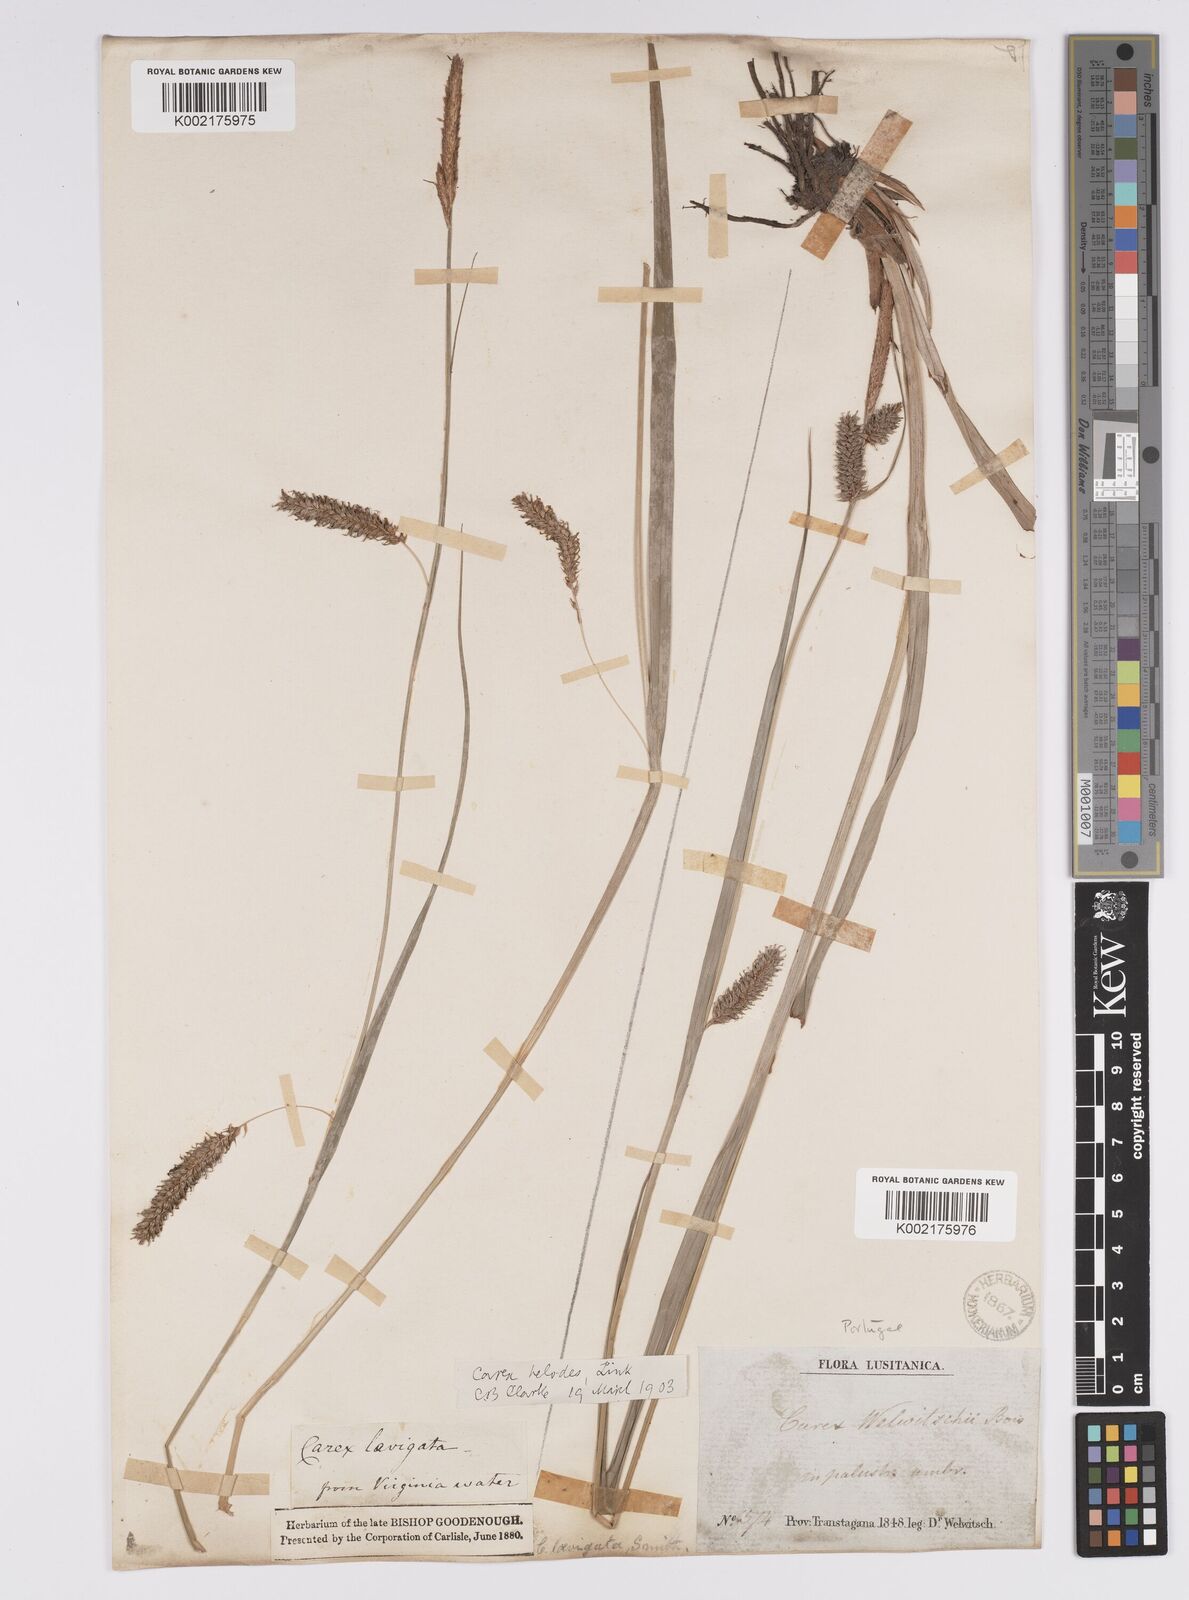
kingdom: Plantae
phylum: Tracheophyta
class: Liliopsida
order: Poales
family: Cyperaceae
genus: Carex
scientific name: Carex laevigata
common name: Smooth-stalked sedge
